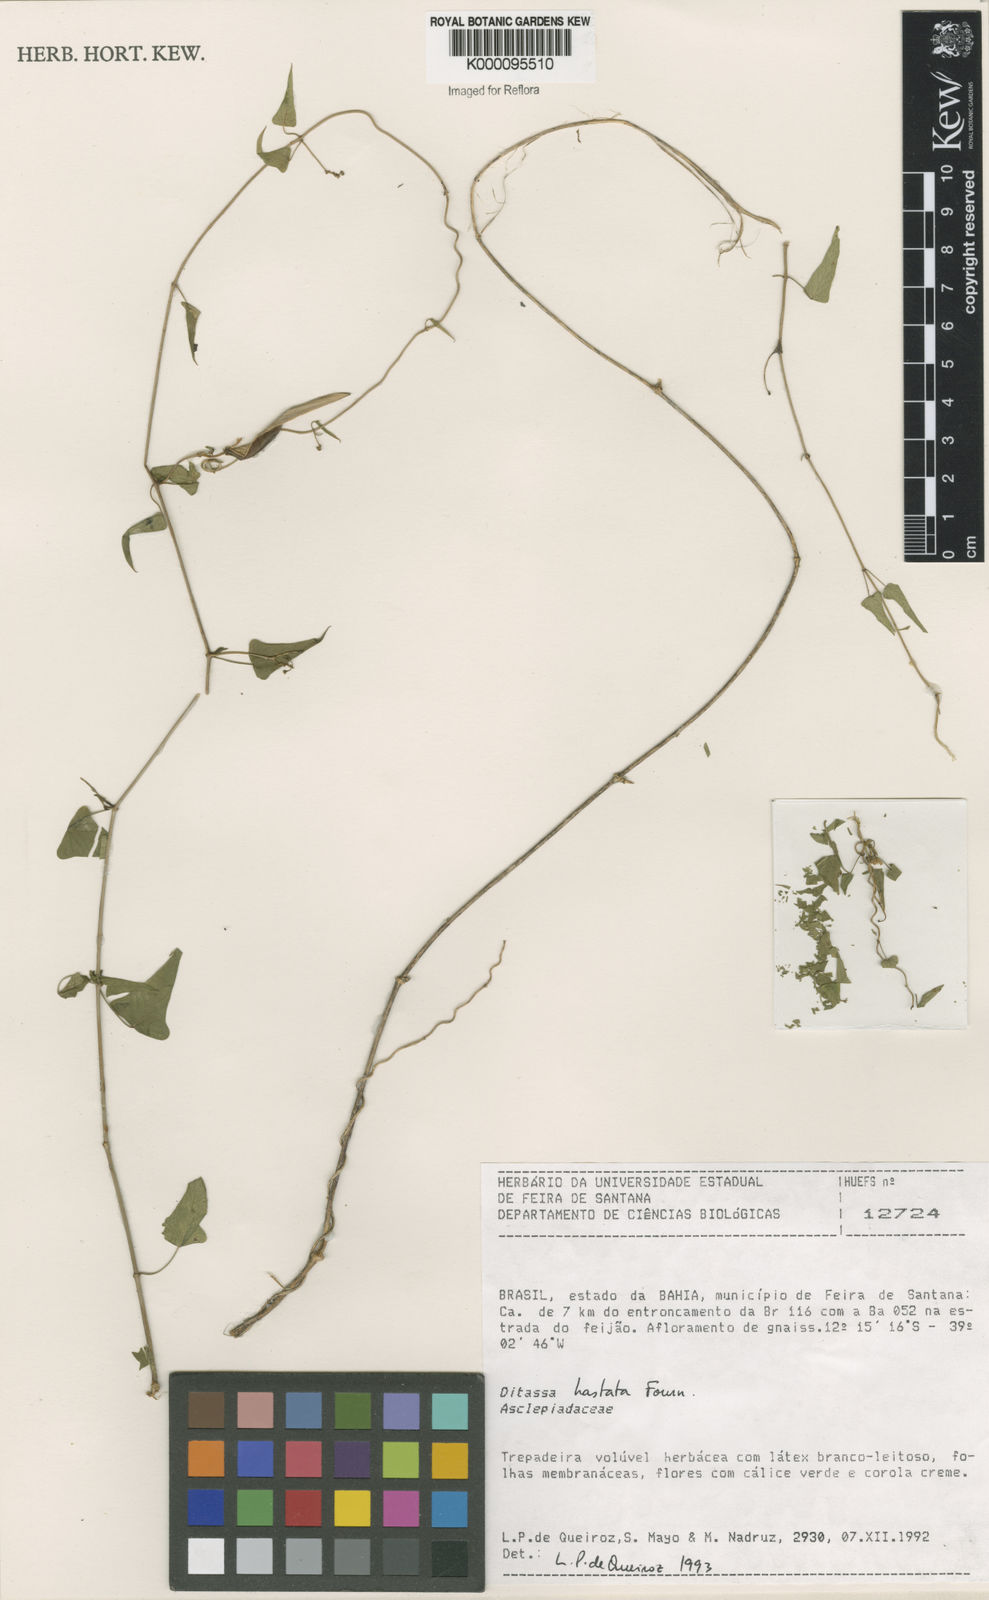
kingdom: Plantae
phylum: Tracheophyta
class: Magnoliopsida
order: Gentianales
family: Apocynaceae
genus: Ditassa
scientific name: Ditassa hastata
